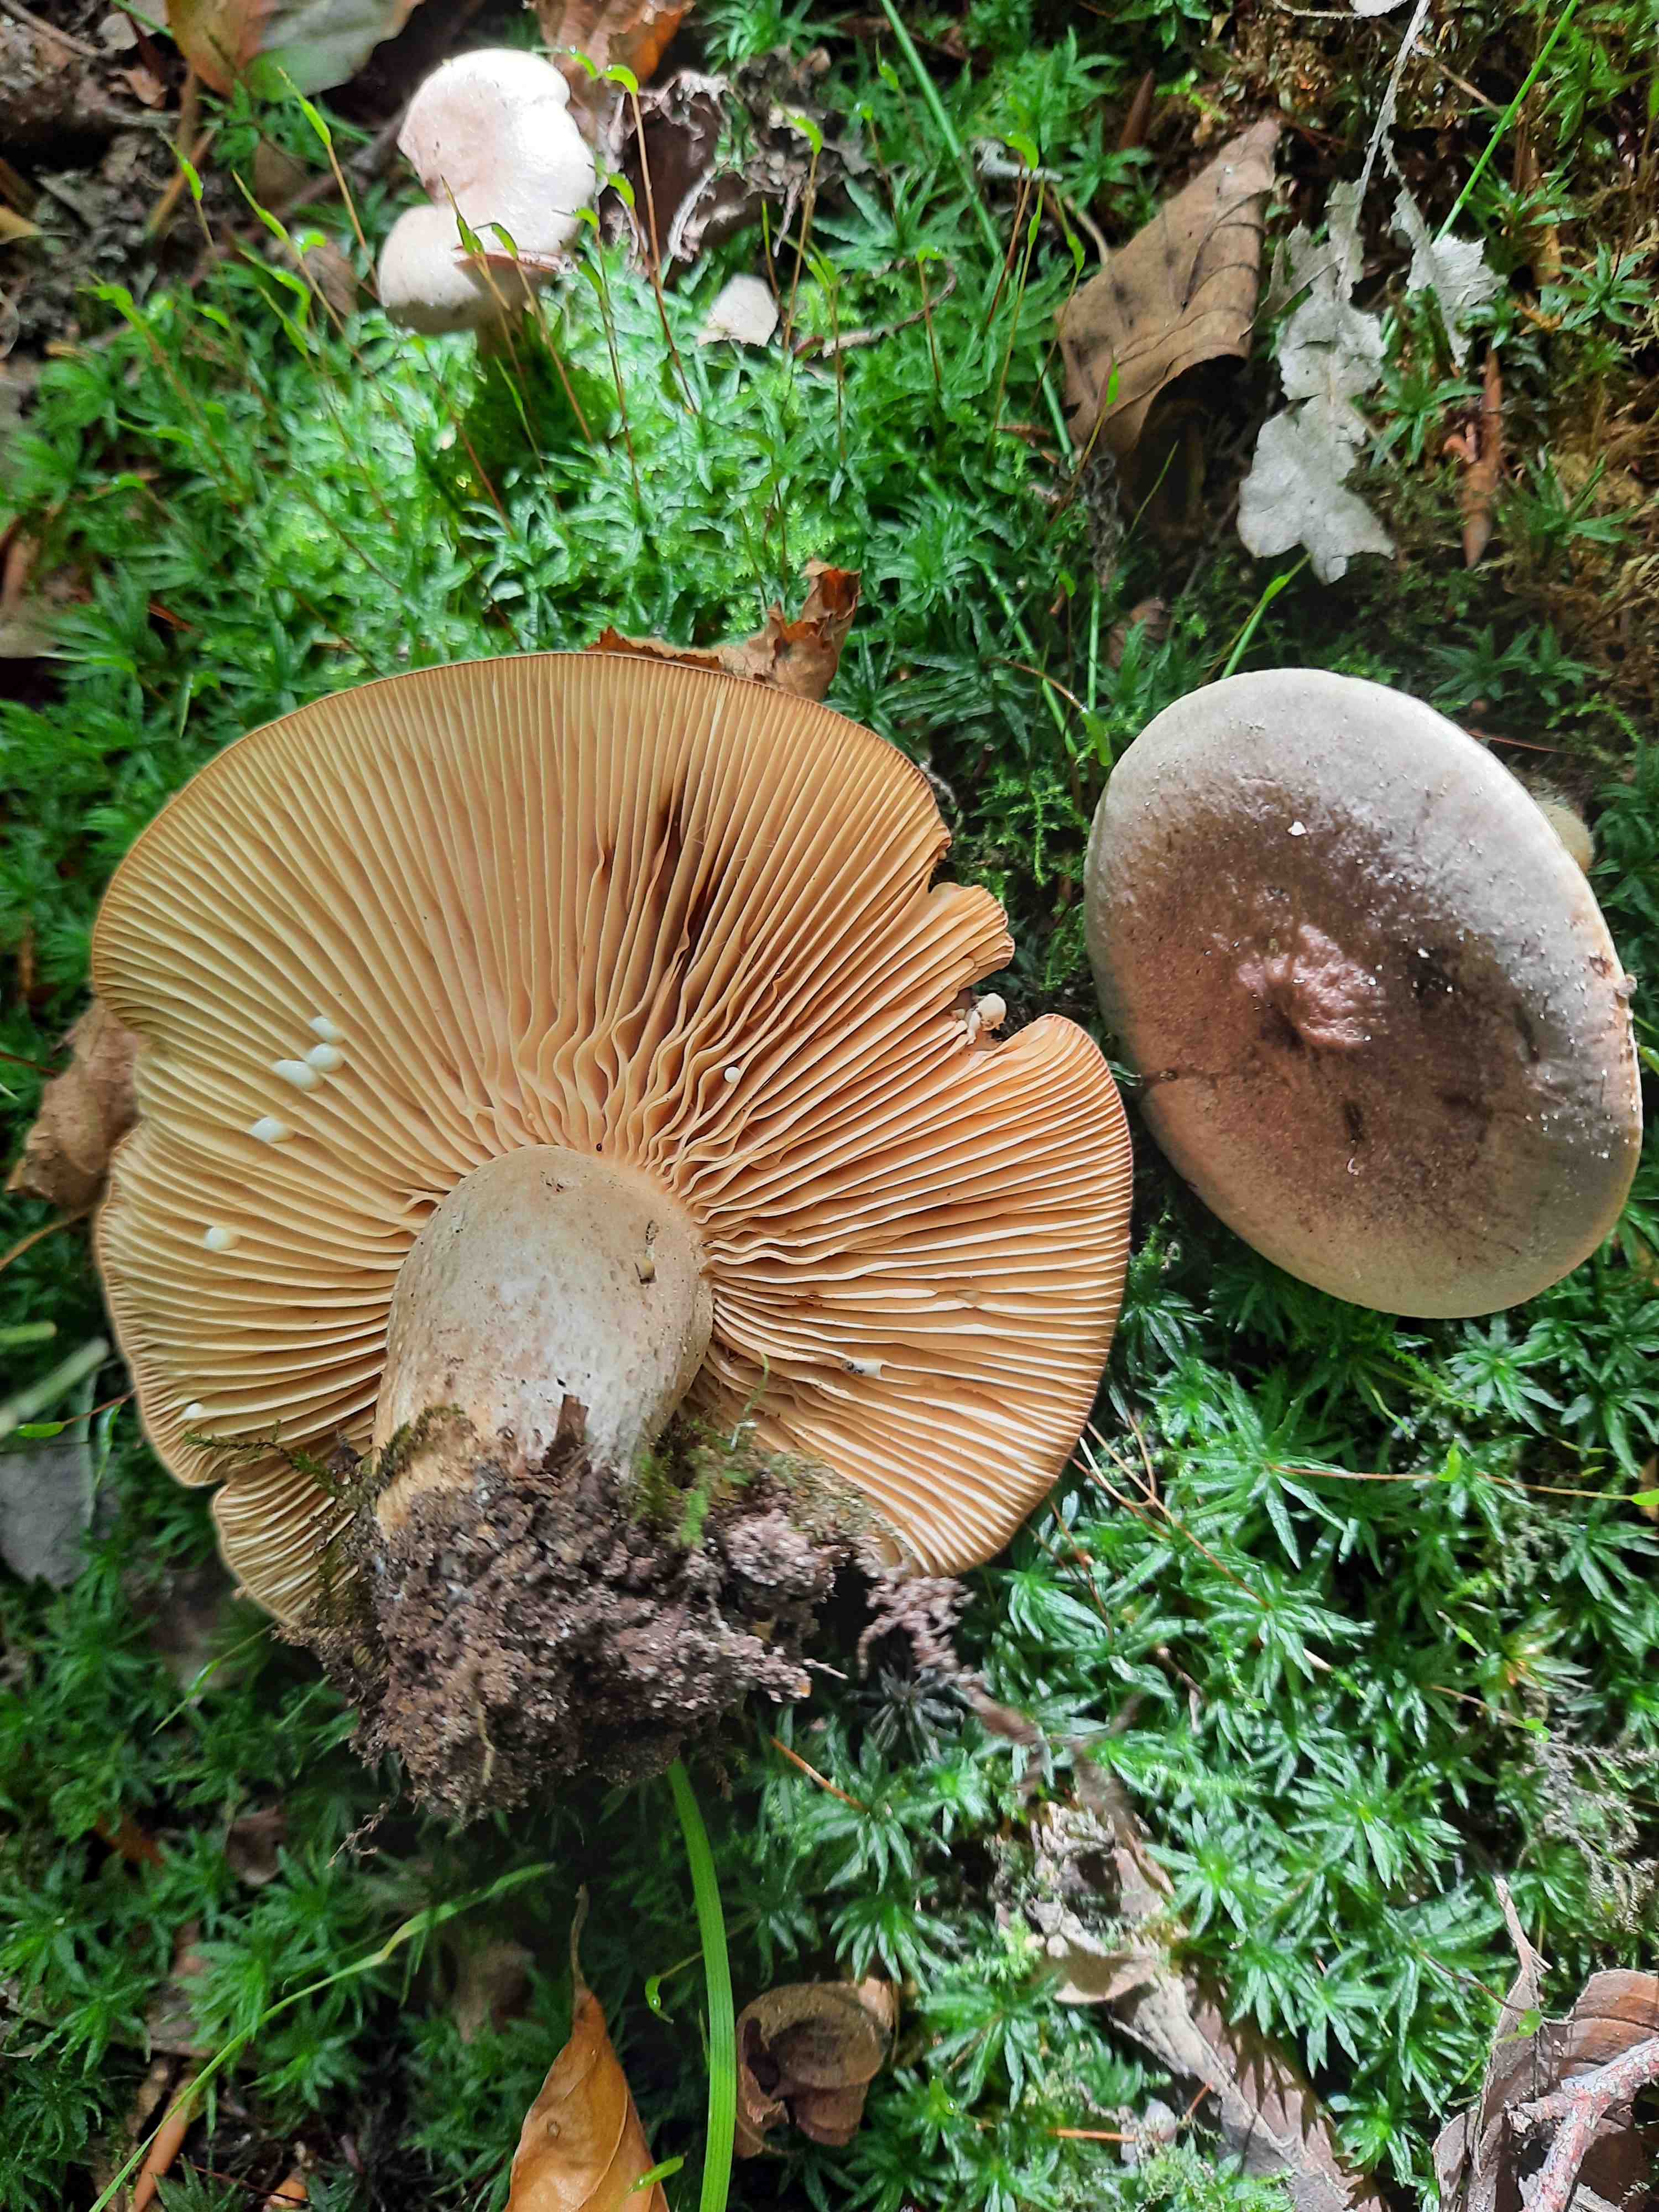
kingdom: Fungi
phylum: Basidiomycota
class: Agaricomycetes
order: Russulales
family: Russulaceae
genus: Lactarius
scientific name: Lactarius pyrogalus
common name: hassel-mælkehat
